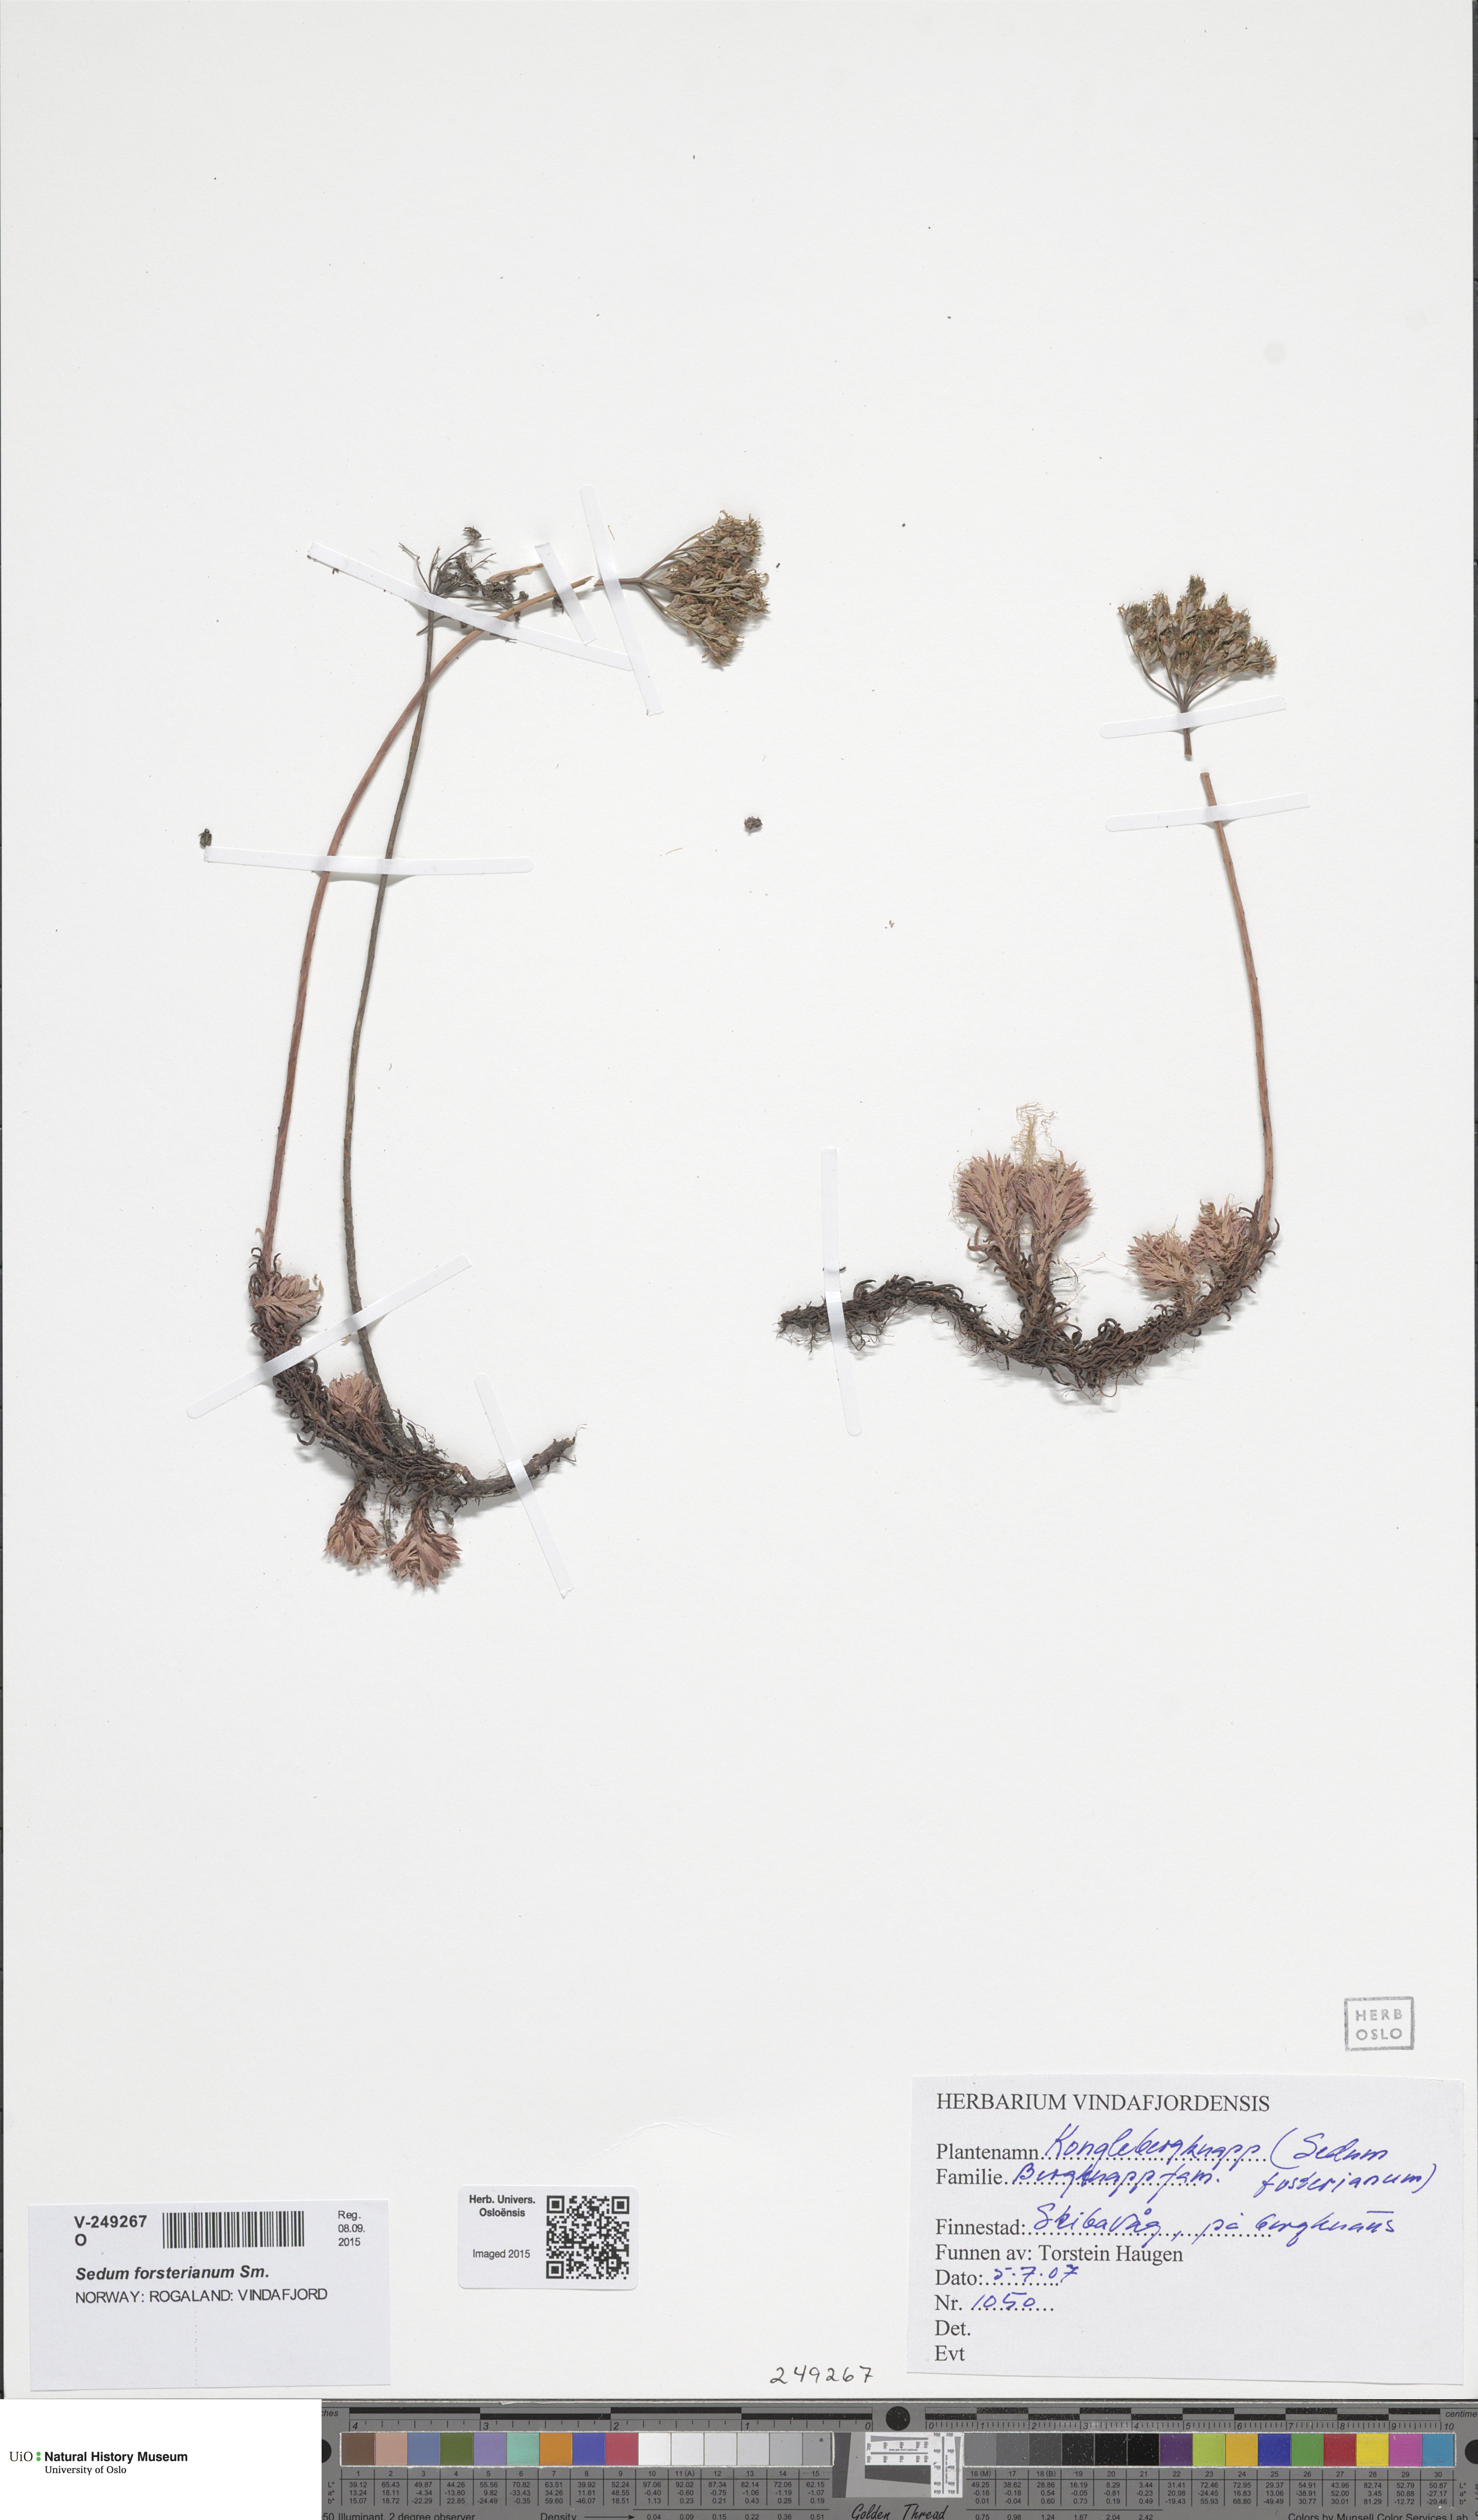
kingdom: Plantae
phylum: Tracheophyta
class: Magnoliopsida
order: Saxifragales
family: Crassulaceae
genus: Petrosedum
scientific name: Petrosedum forsterianum
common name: Forster's stonecrop
